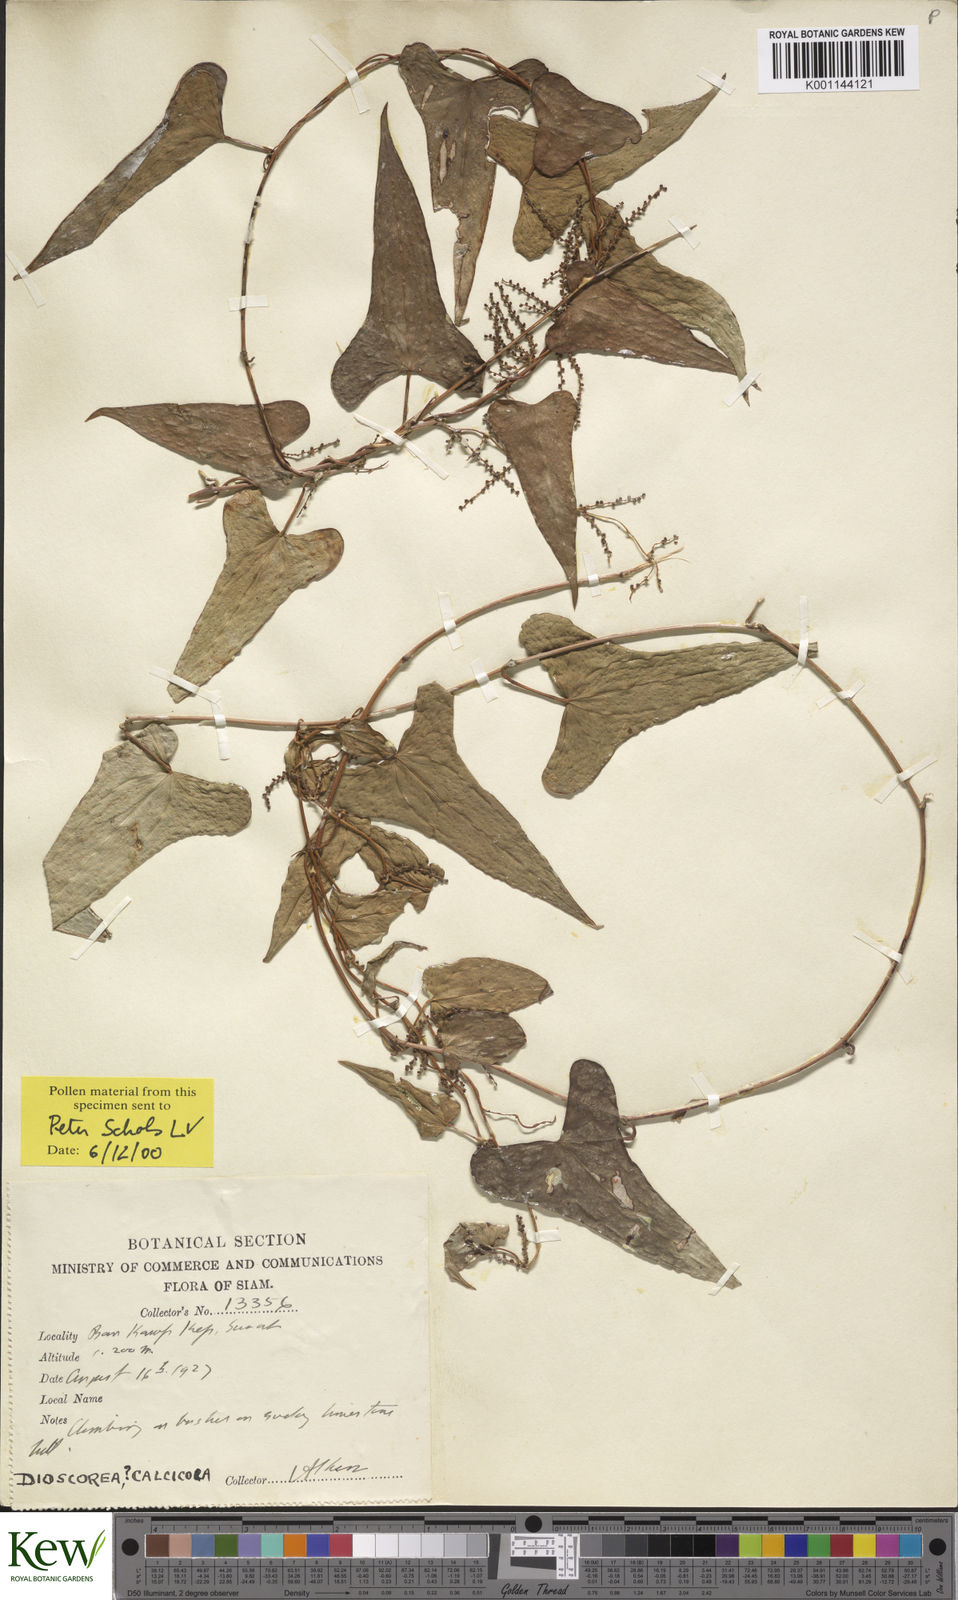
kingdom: Plantae
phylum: Tracheophyta
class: Liliopsida
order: Dioscoreales
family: Dioscoreaceae
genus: Dioscorea
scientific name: Dioscorea calcicola
